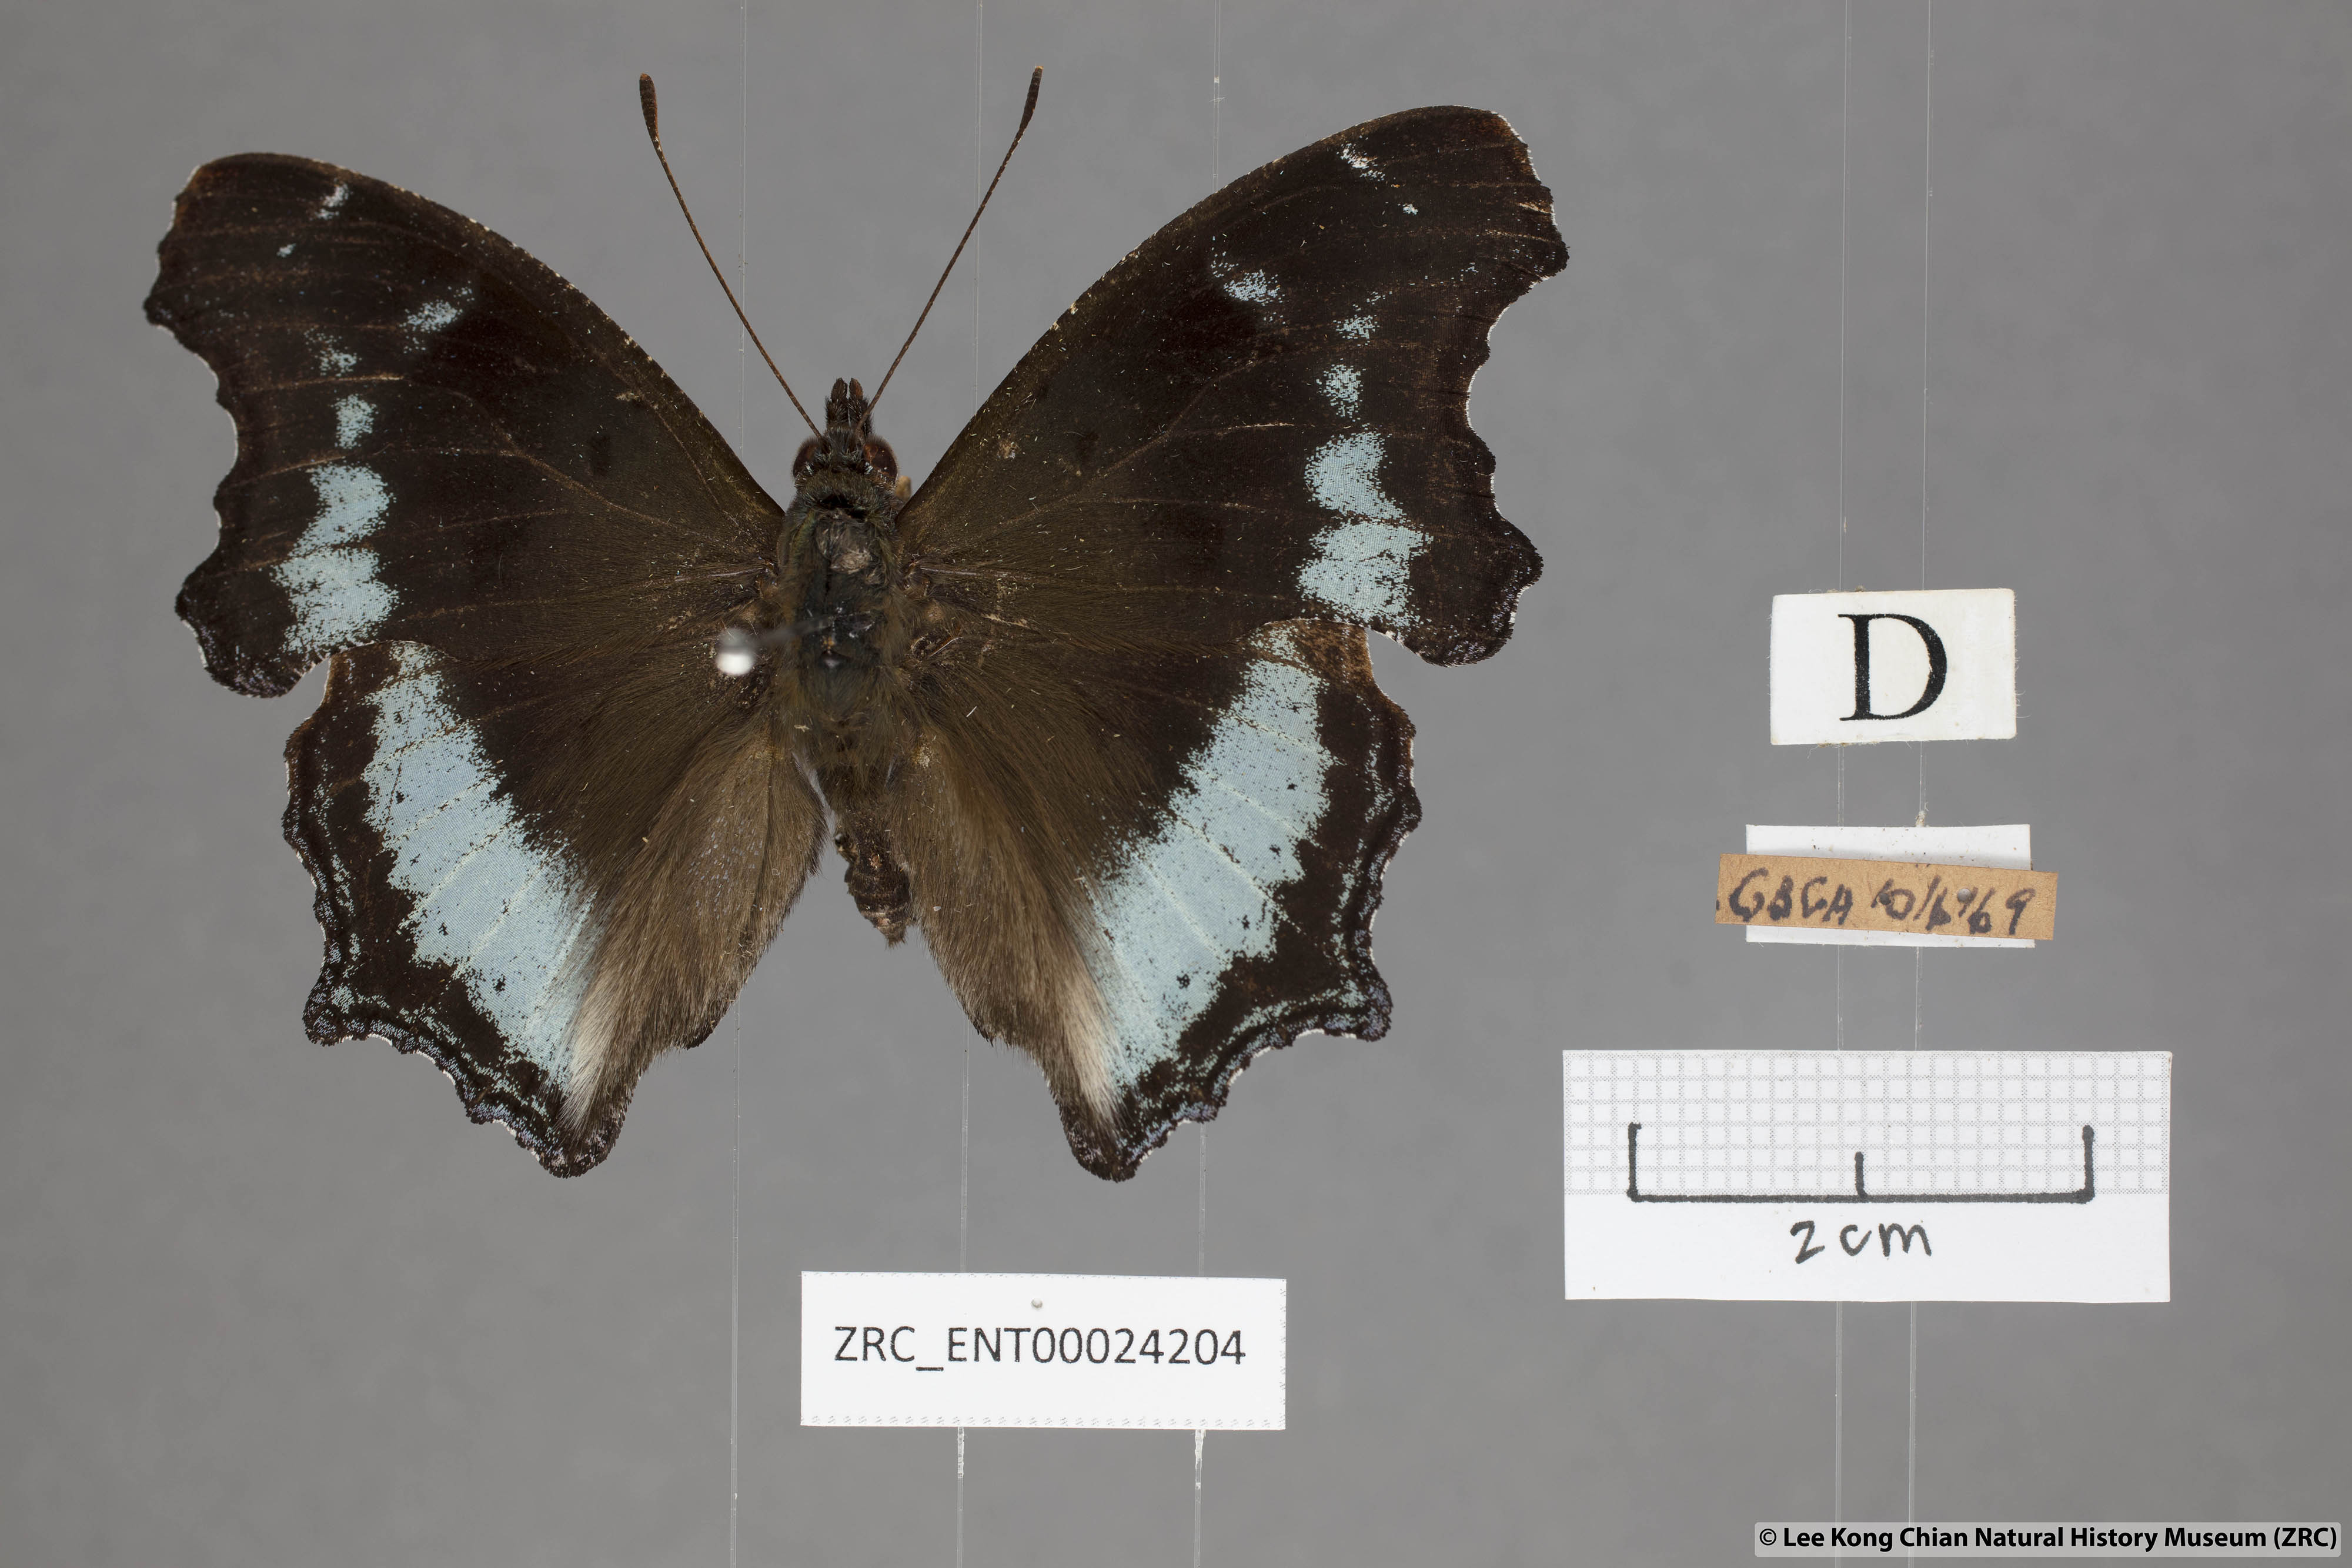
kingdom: Animalia
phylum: Arthropoda
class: Insecta
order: Lepidoptera
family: Nymphalidae
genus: Vanessa
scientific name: Vanessa Kaniska canace
